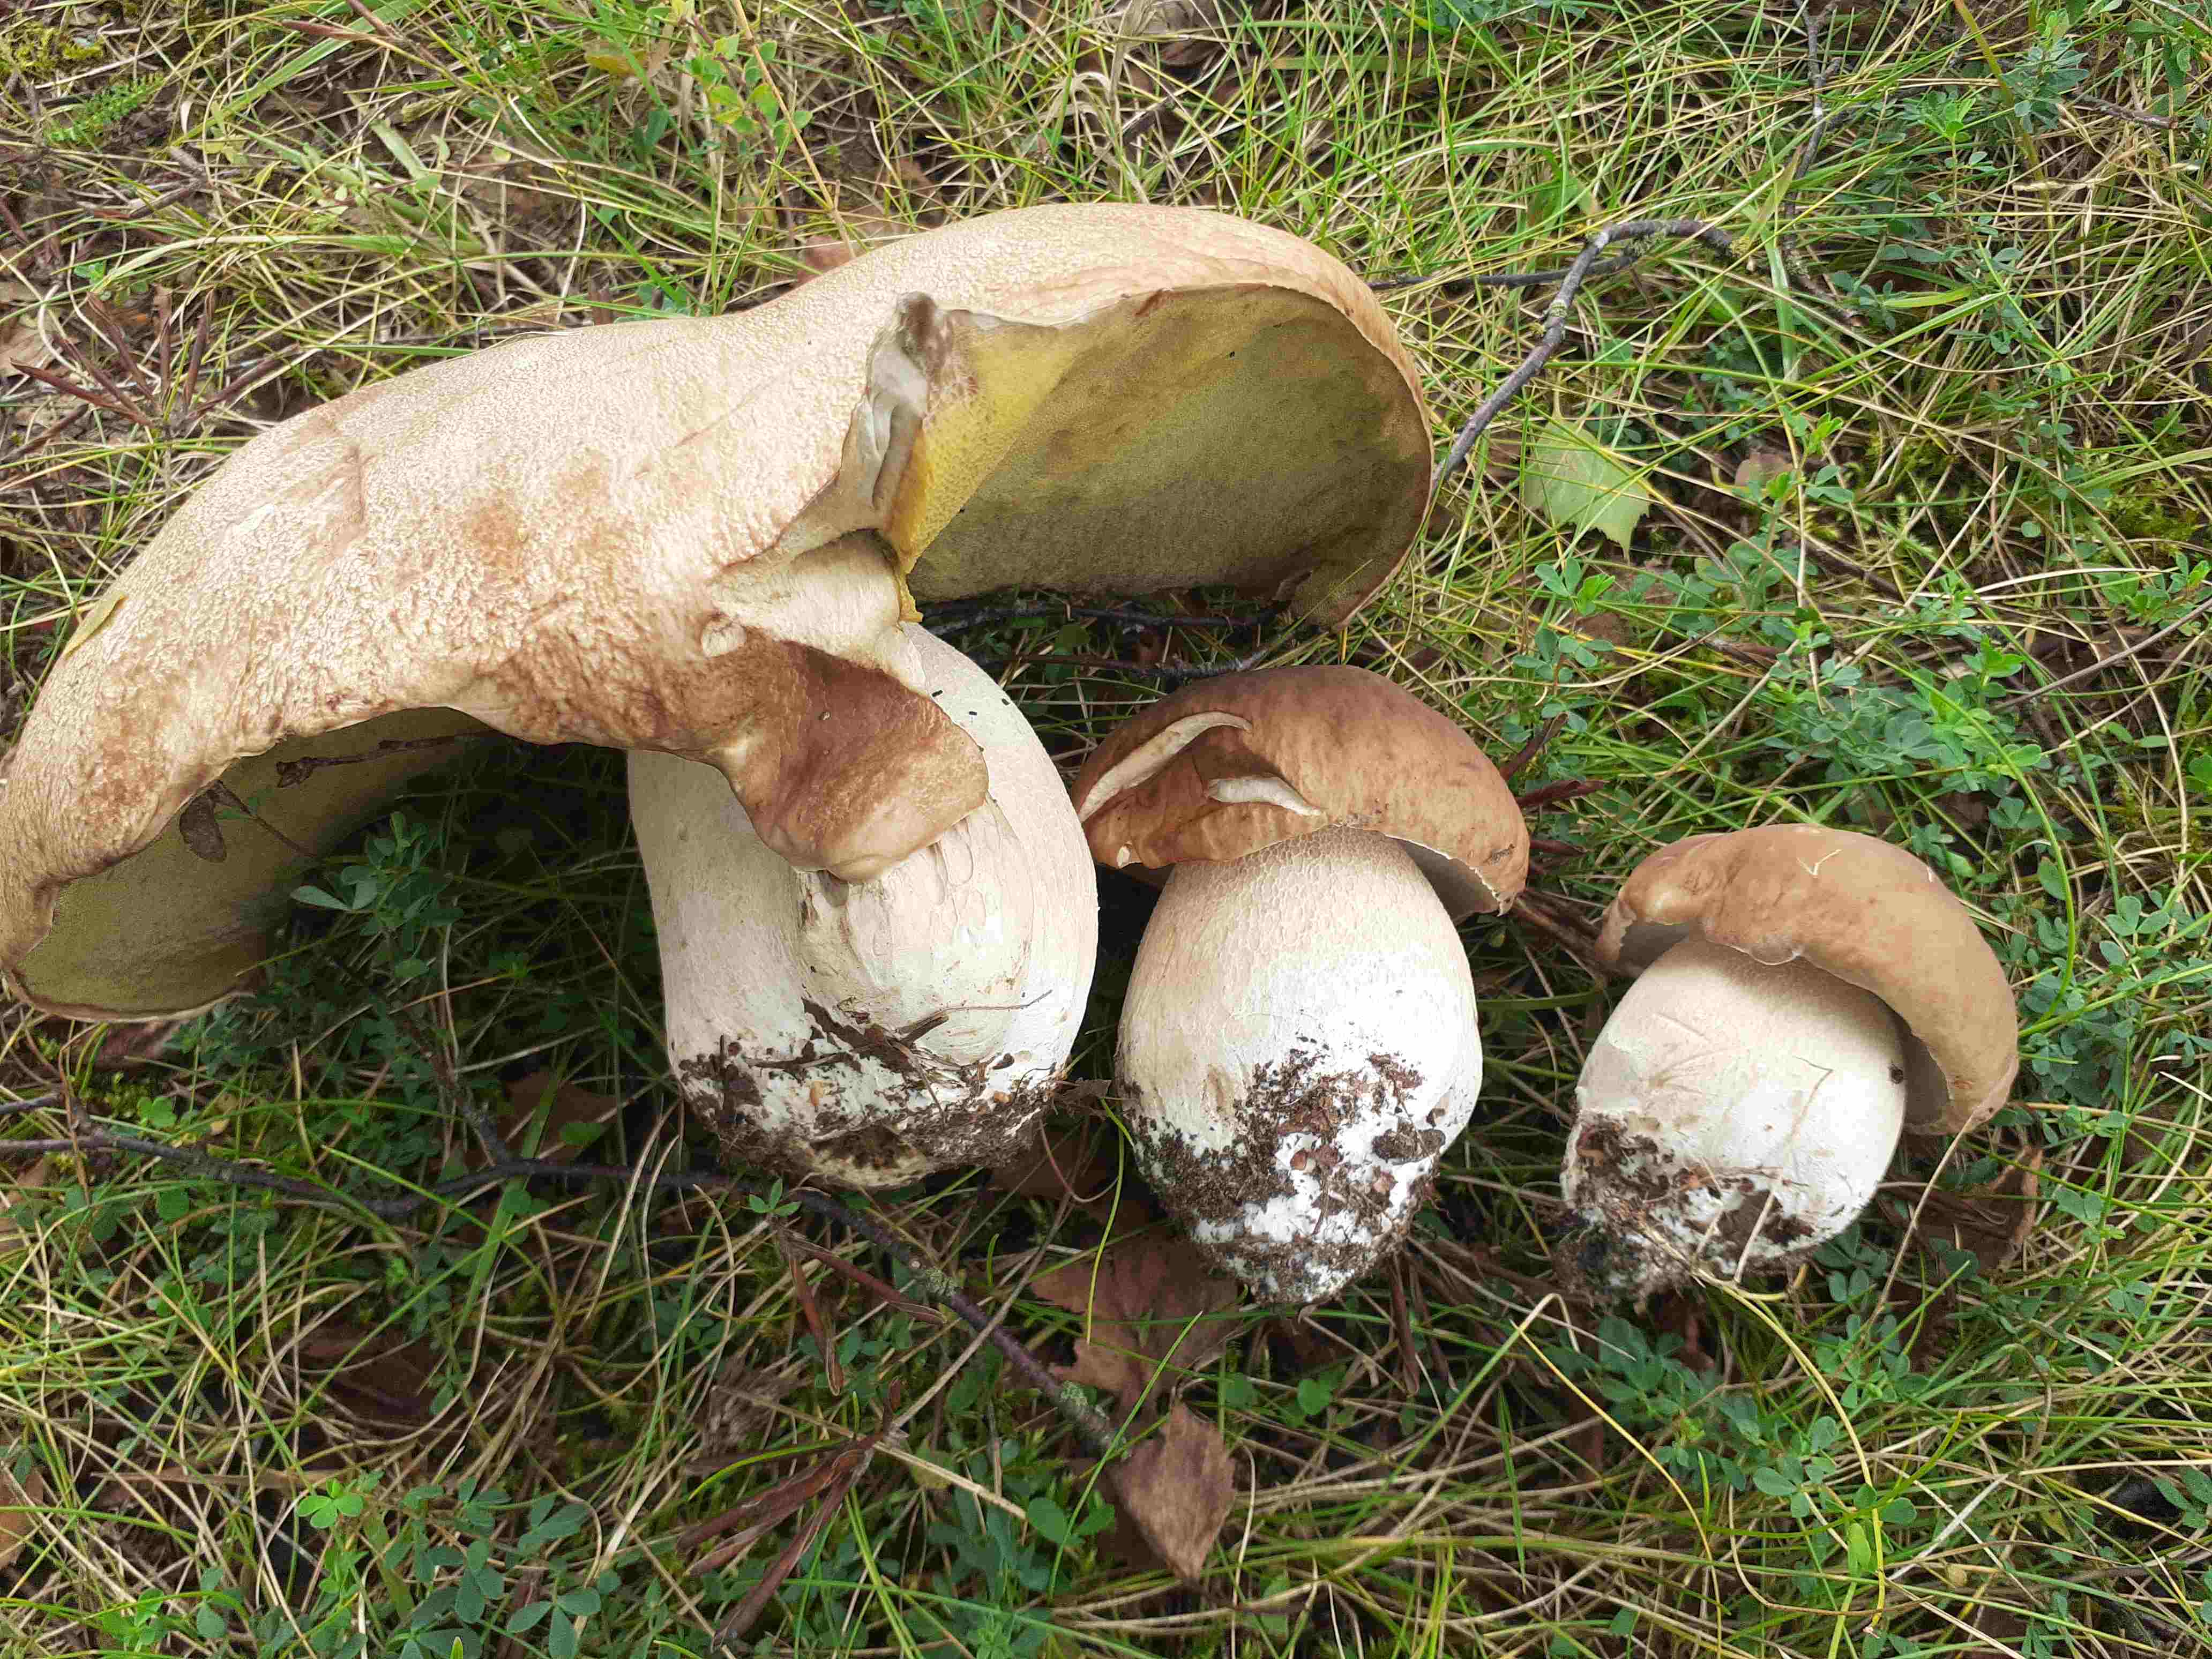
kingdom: Fungi
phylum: Basidiomycota
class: Agaricomycetes
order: Boletales
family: Boletaceae
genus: Boletus
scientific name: Boletus edulis
